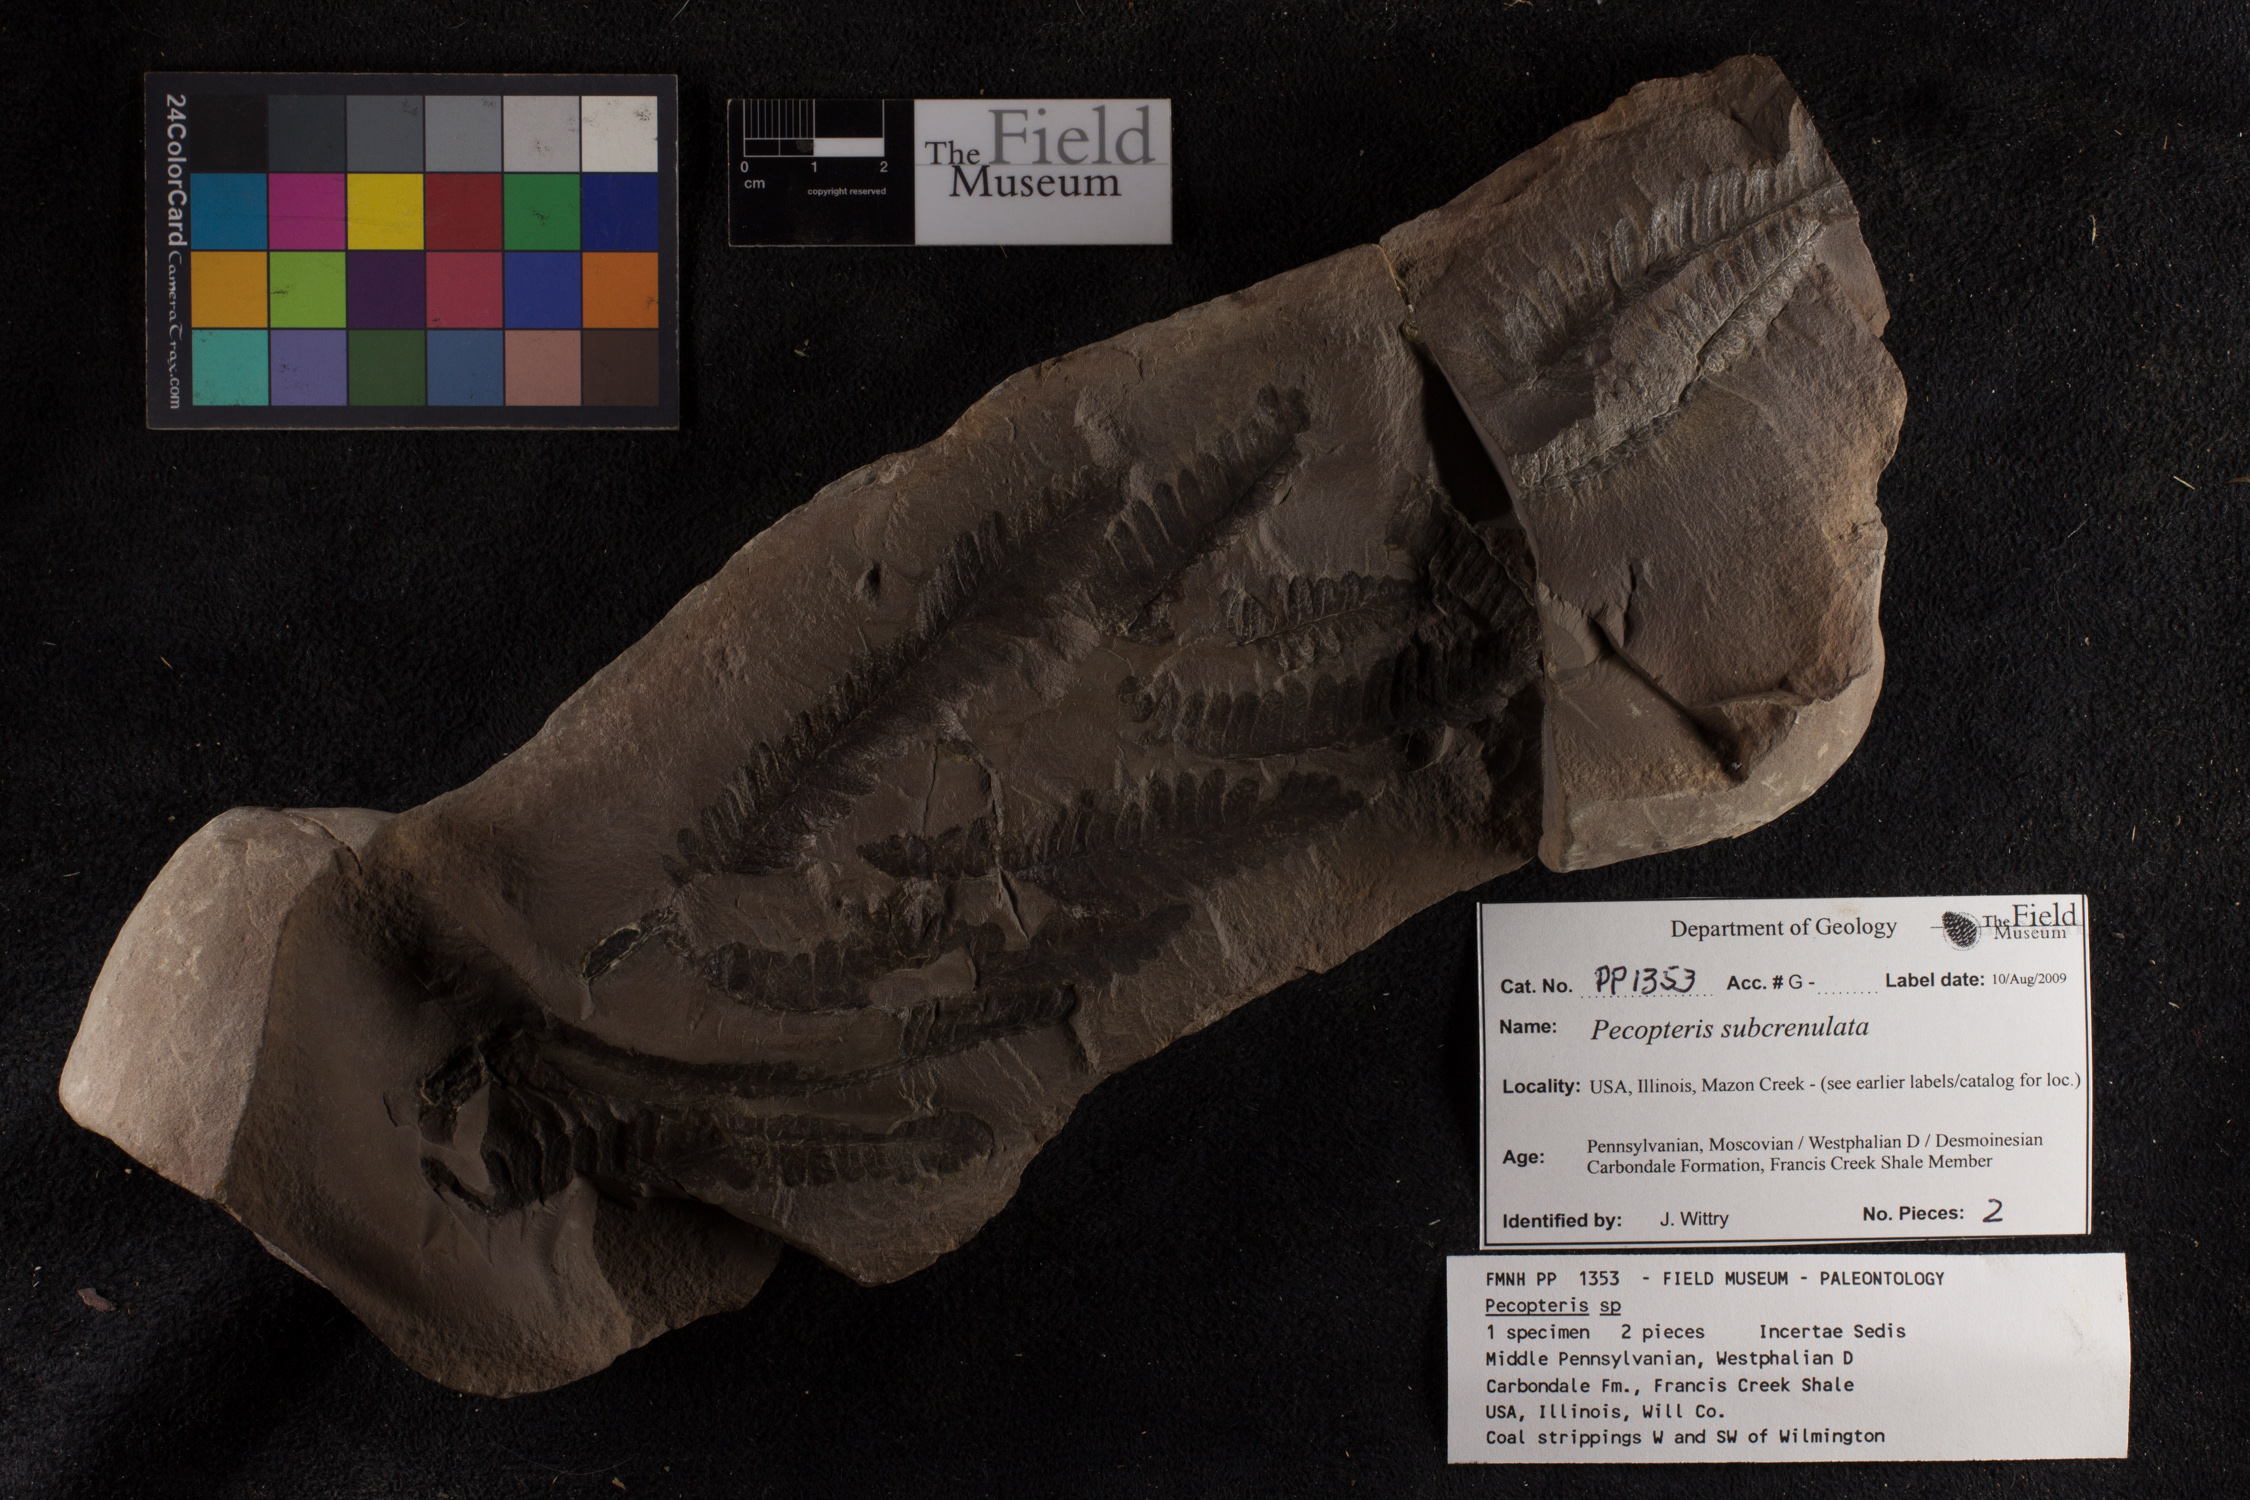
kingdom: Plantae
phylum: Tracheophyta
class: Polypodiopsida
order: Marattiales
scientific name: Marattiales
